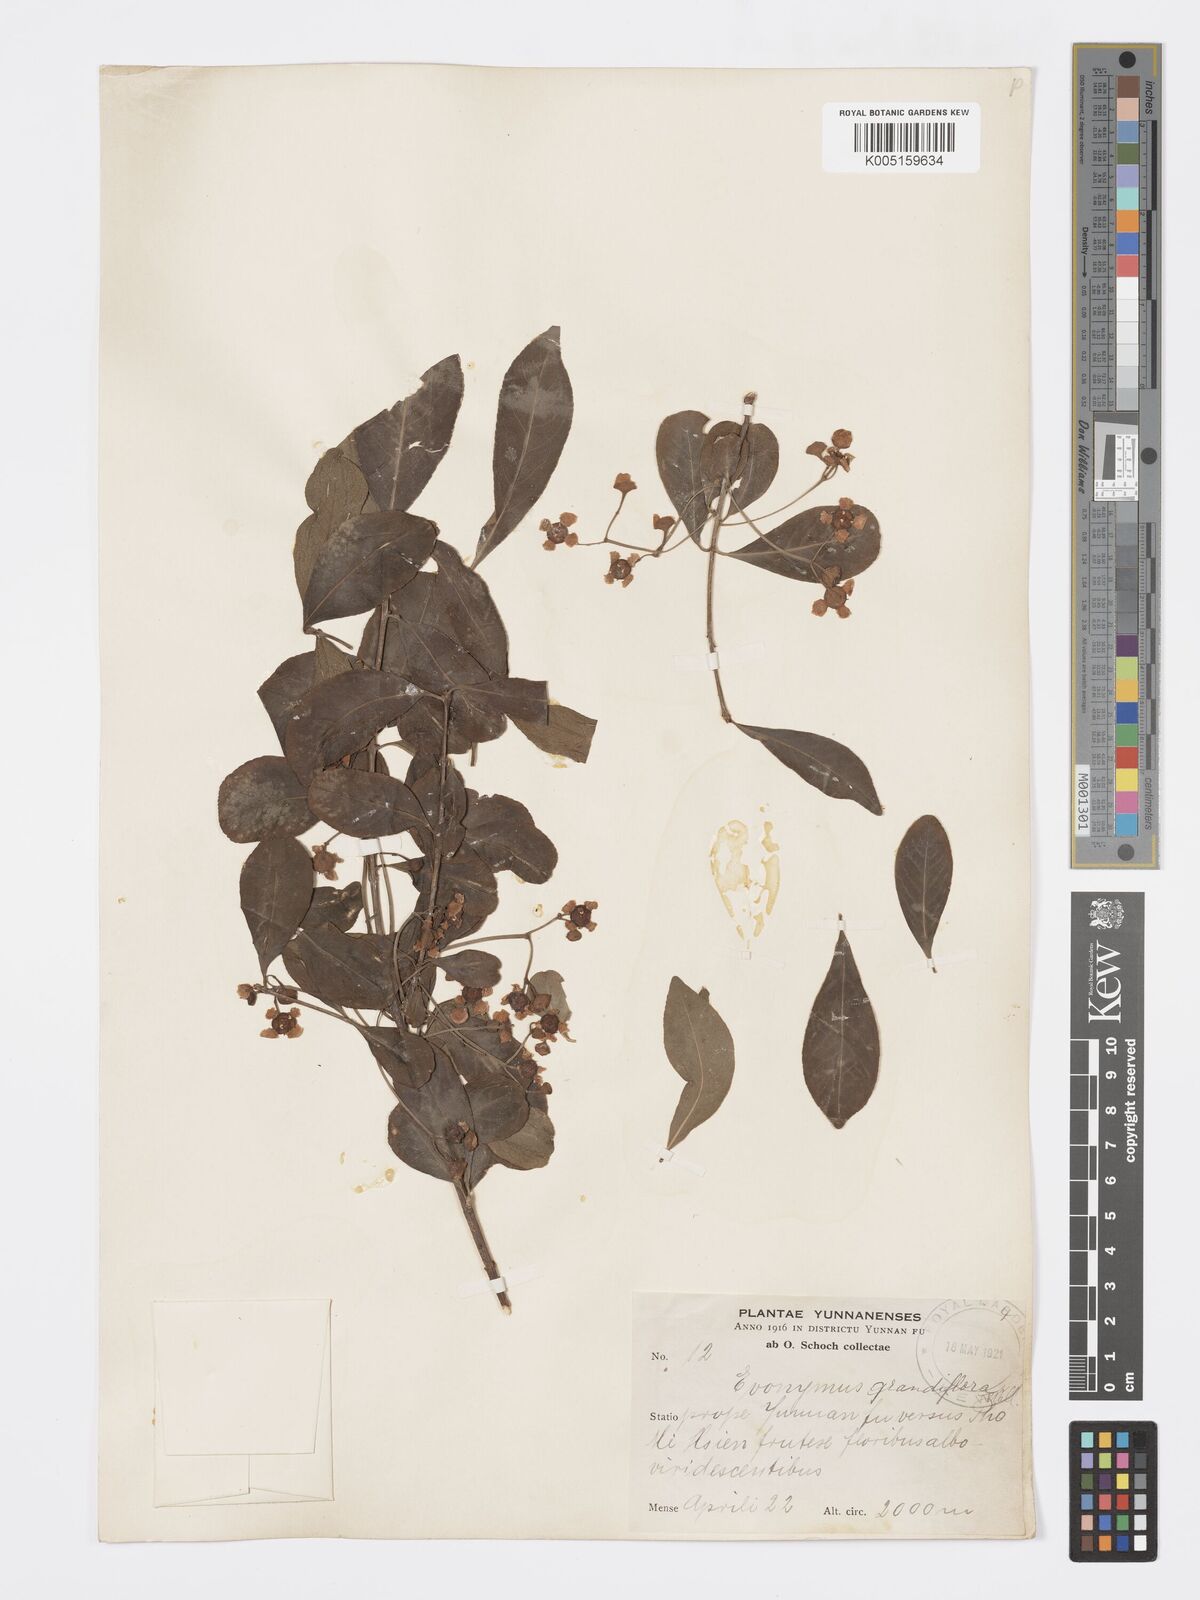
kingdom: Plantae
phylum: Tracheophyta
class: Magnoliopsida
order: Celastrales
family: Celastraceae
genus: Euonymus
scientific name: Euonymus grandiflorus
